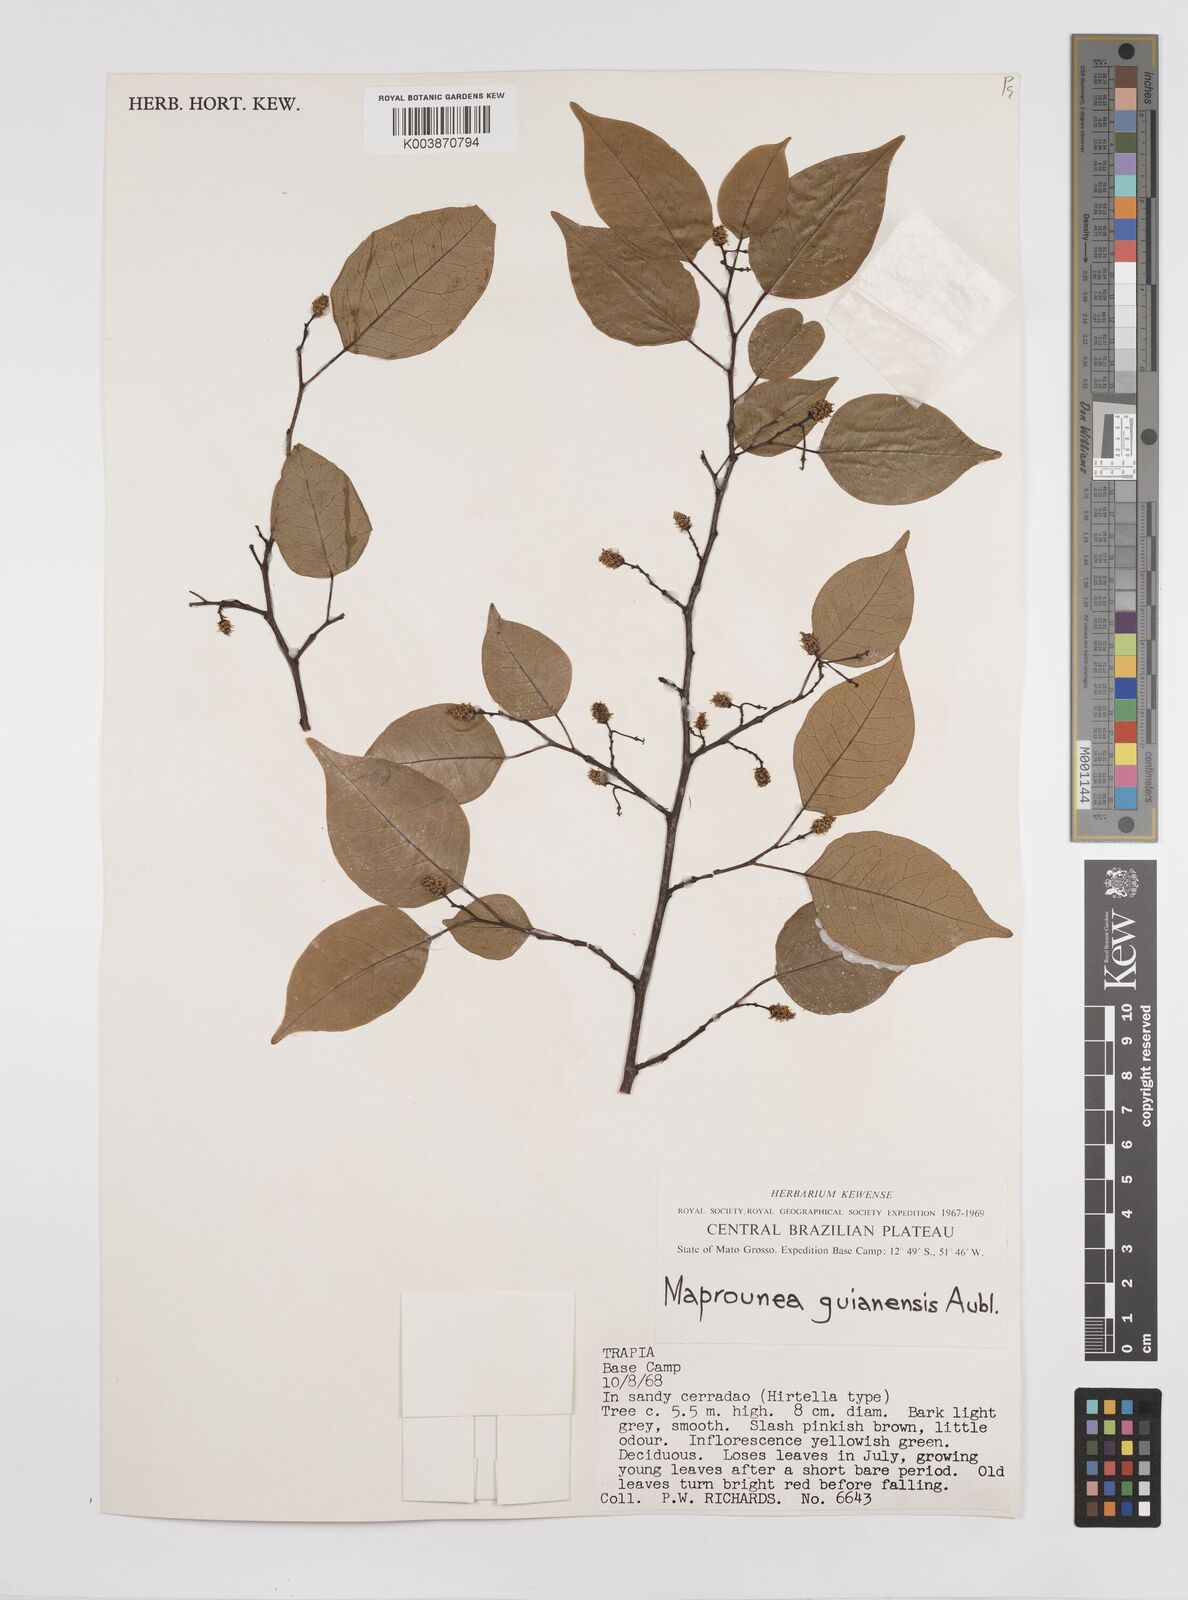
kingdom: Plantae
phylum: Tracheophyta
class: Magnoliopsida
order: Malpighiales
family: Euphorbiaceae
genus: Maprounea
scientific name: Maprounea guianensis
